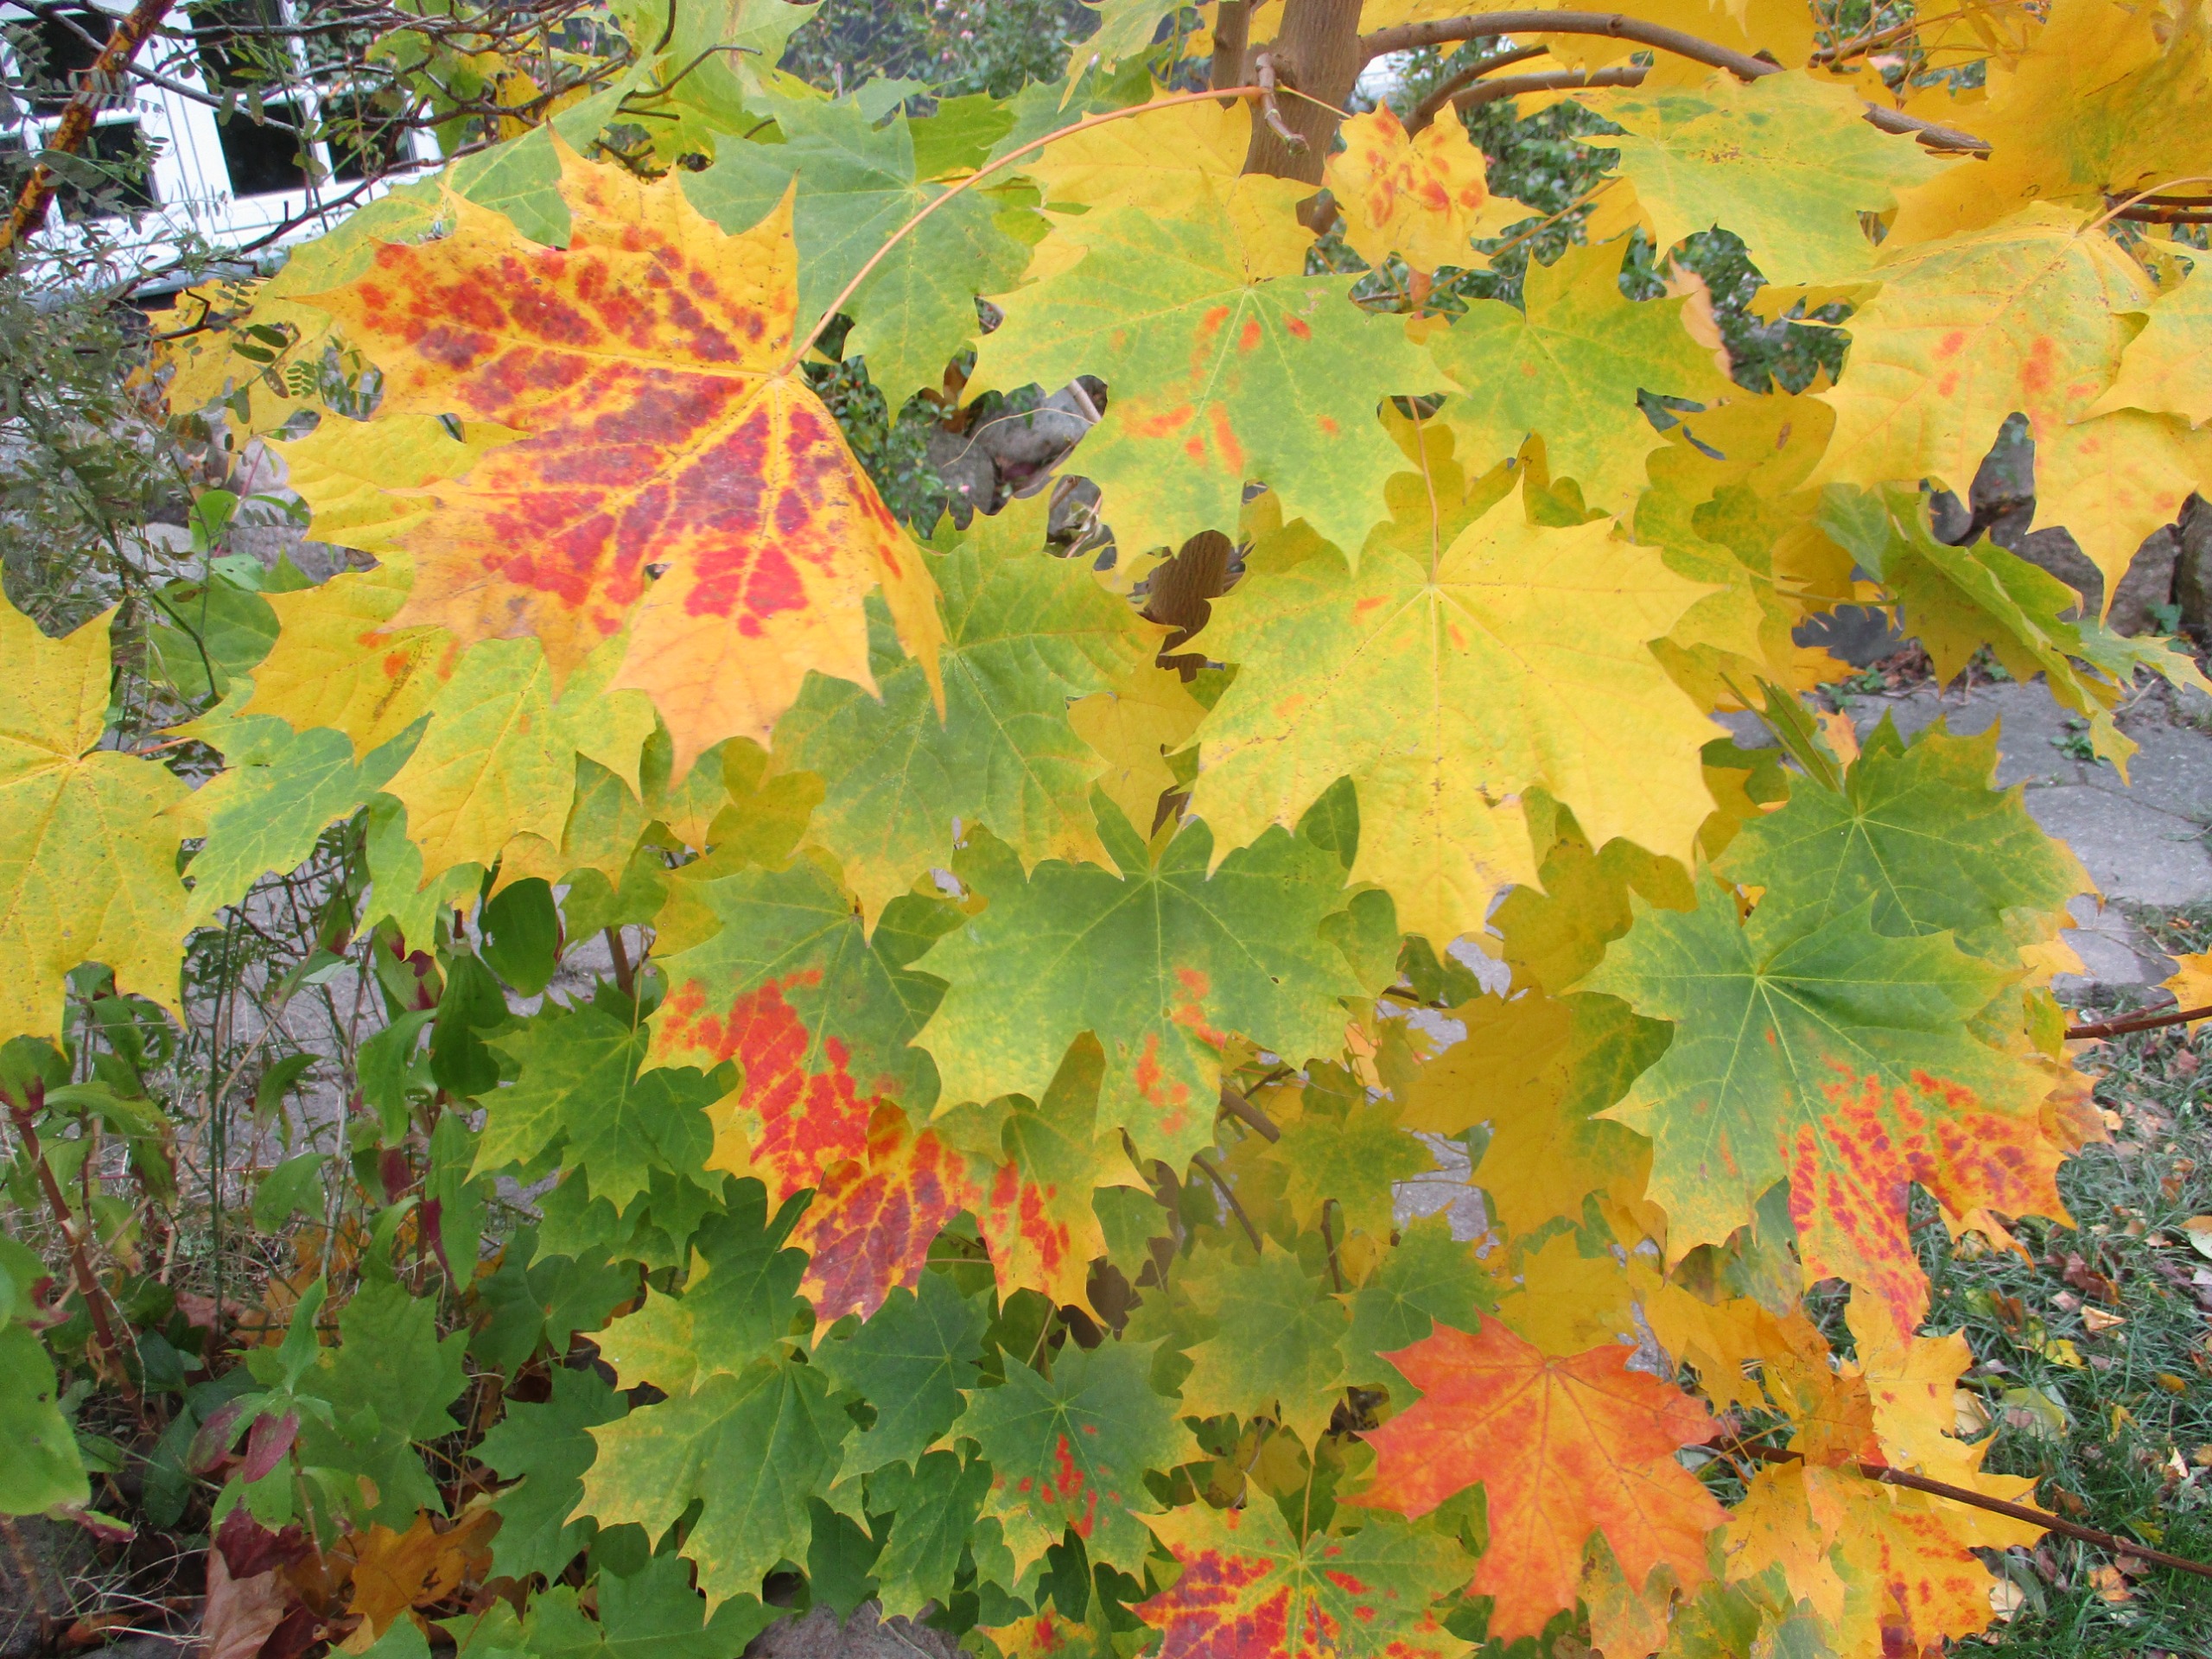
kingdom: Plantae
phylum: Tracheophyta
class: Magnoliopsida
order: Sapindales
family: Sapindaceae
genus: Acer
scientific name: Acer platanoides
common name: Spids-løn
